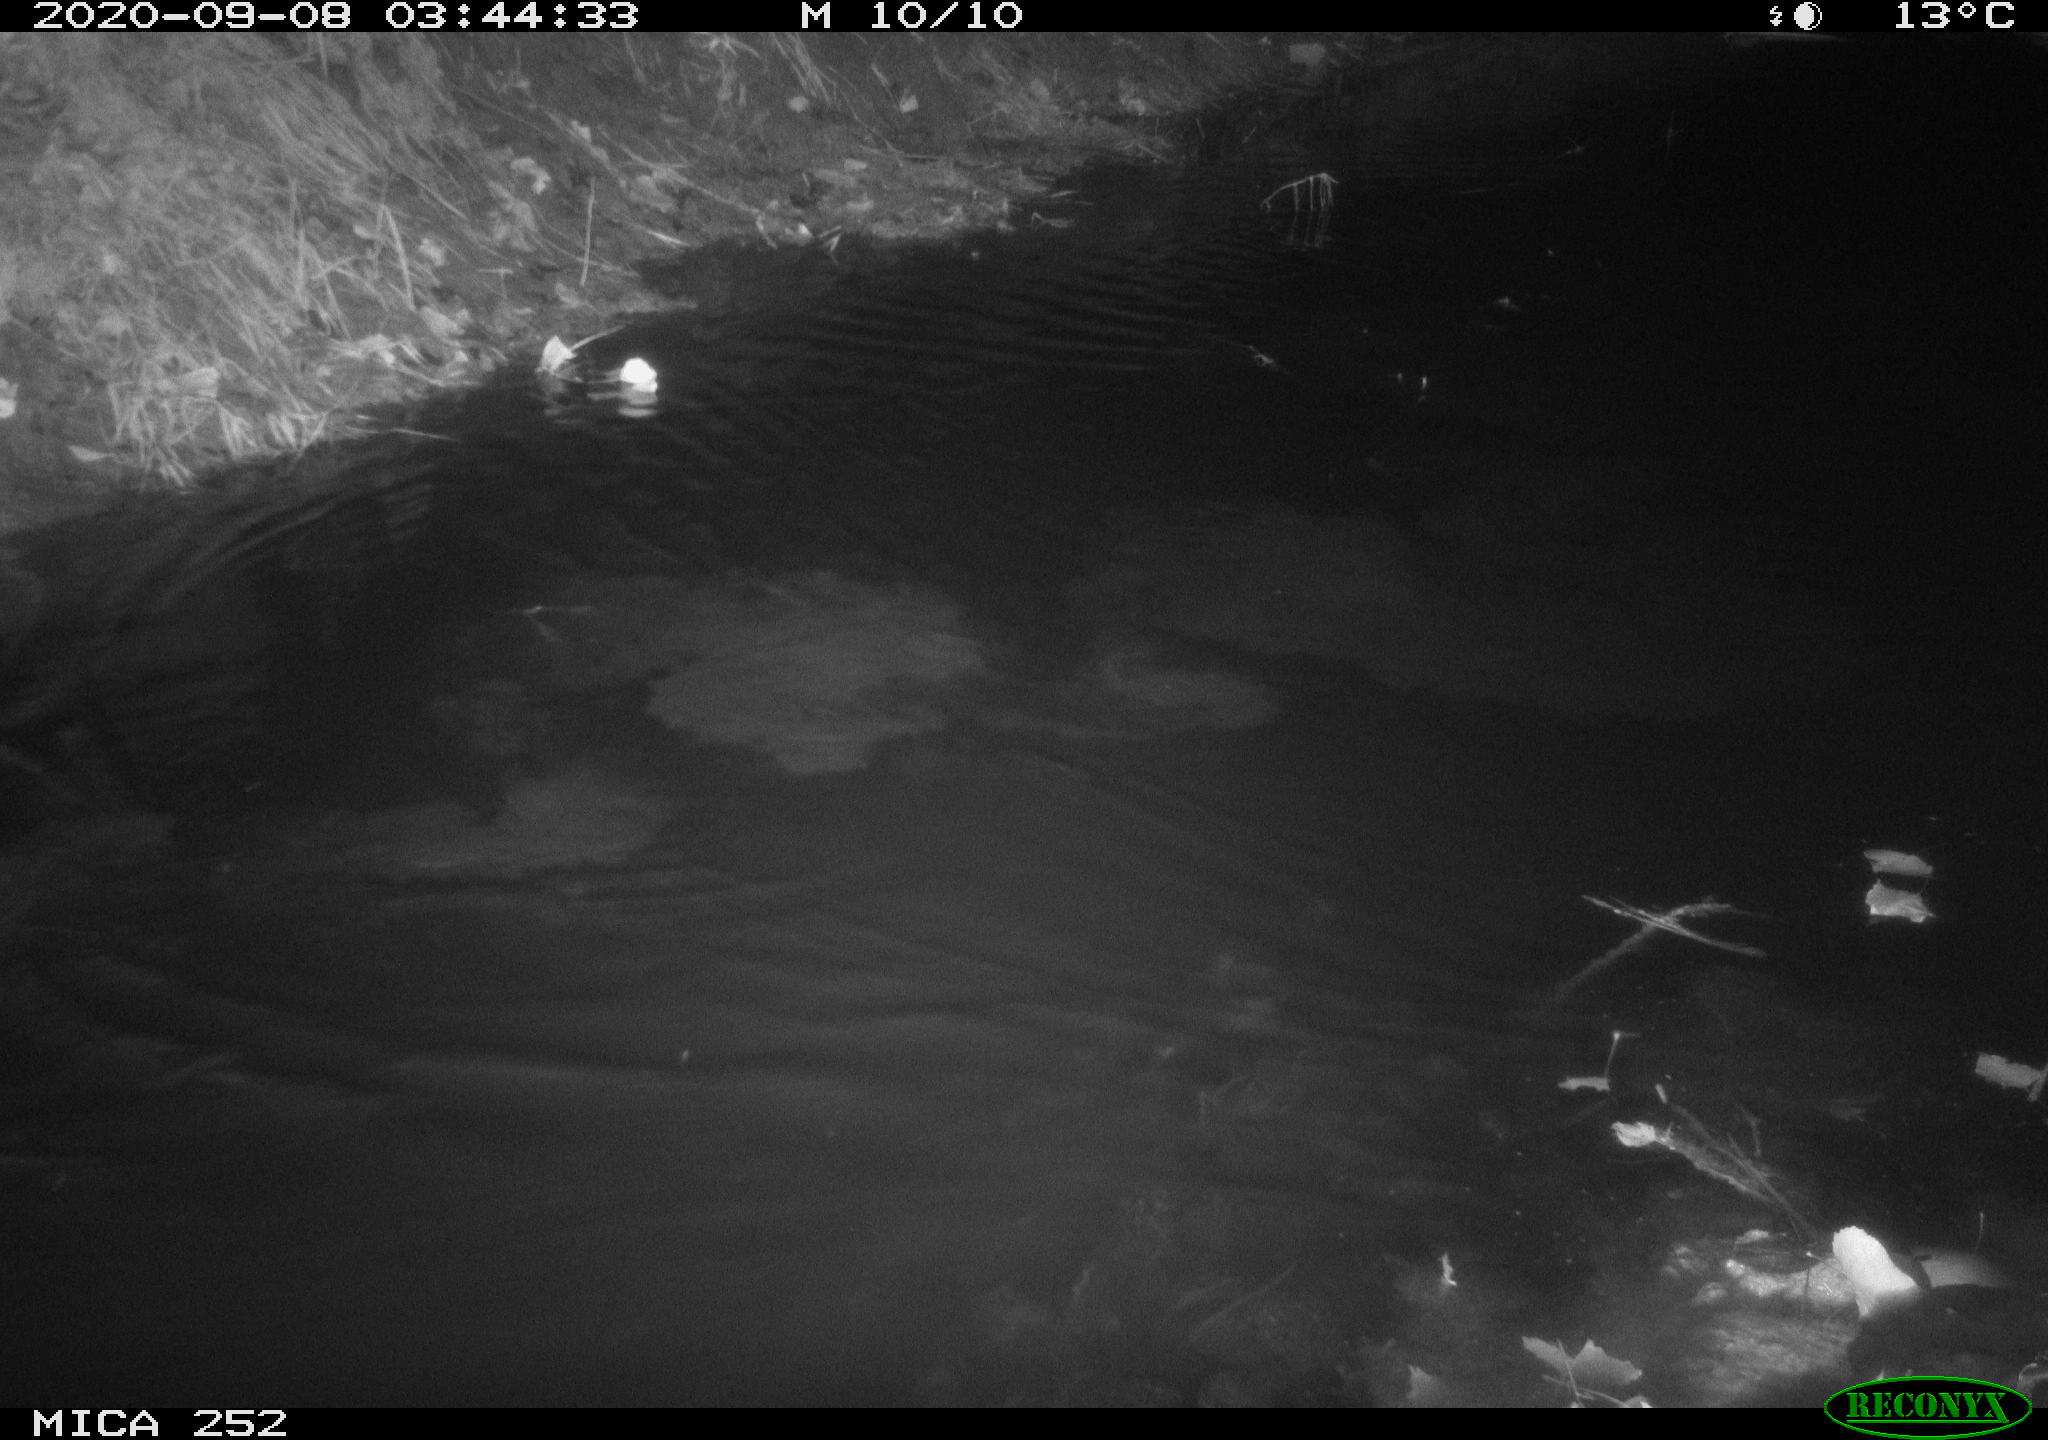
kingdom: Animalia
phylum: Chordata
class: Mammalia
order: Rodentia
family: Castoridae
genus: Castor
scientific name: Castor fiber
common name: Eurasian beaver
